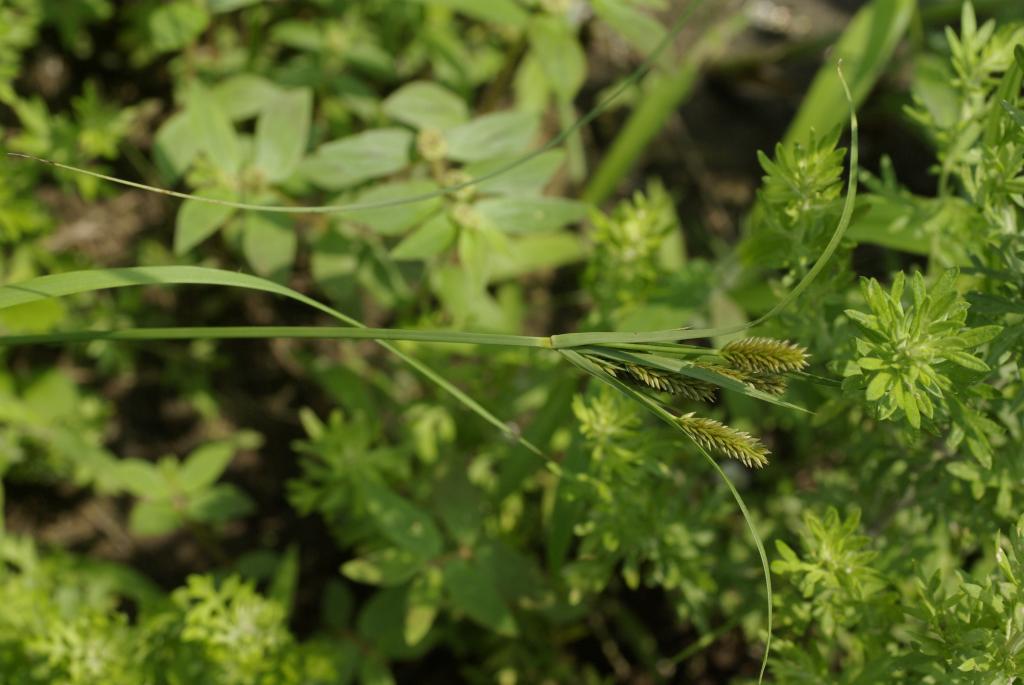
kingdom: Plantae
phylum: Tracheophyta
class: Liliopsida
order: Poales
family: Cyperaceae
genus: Cyperus
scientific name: Cyperus cyperoides
